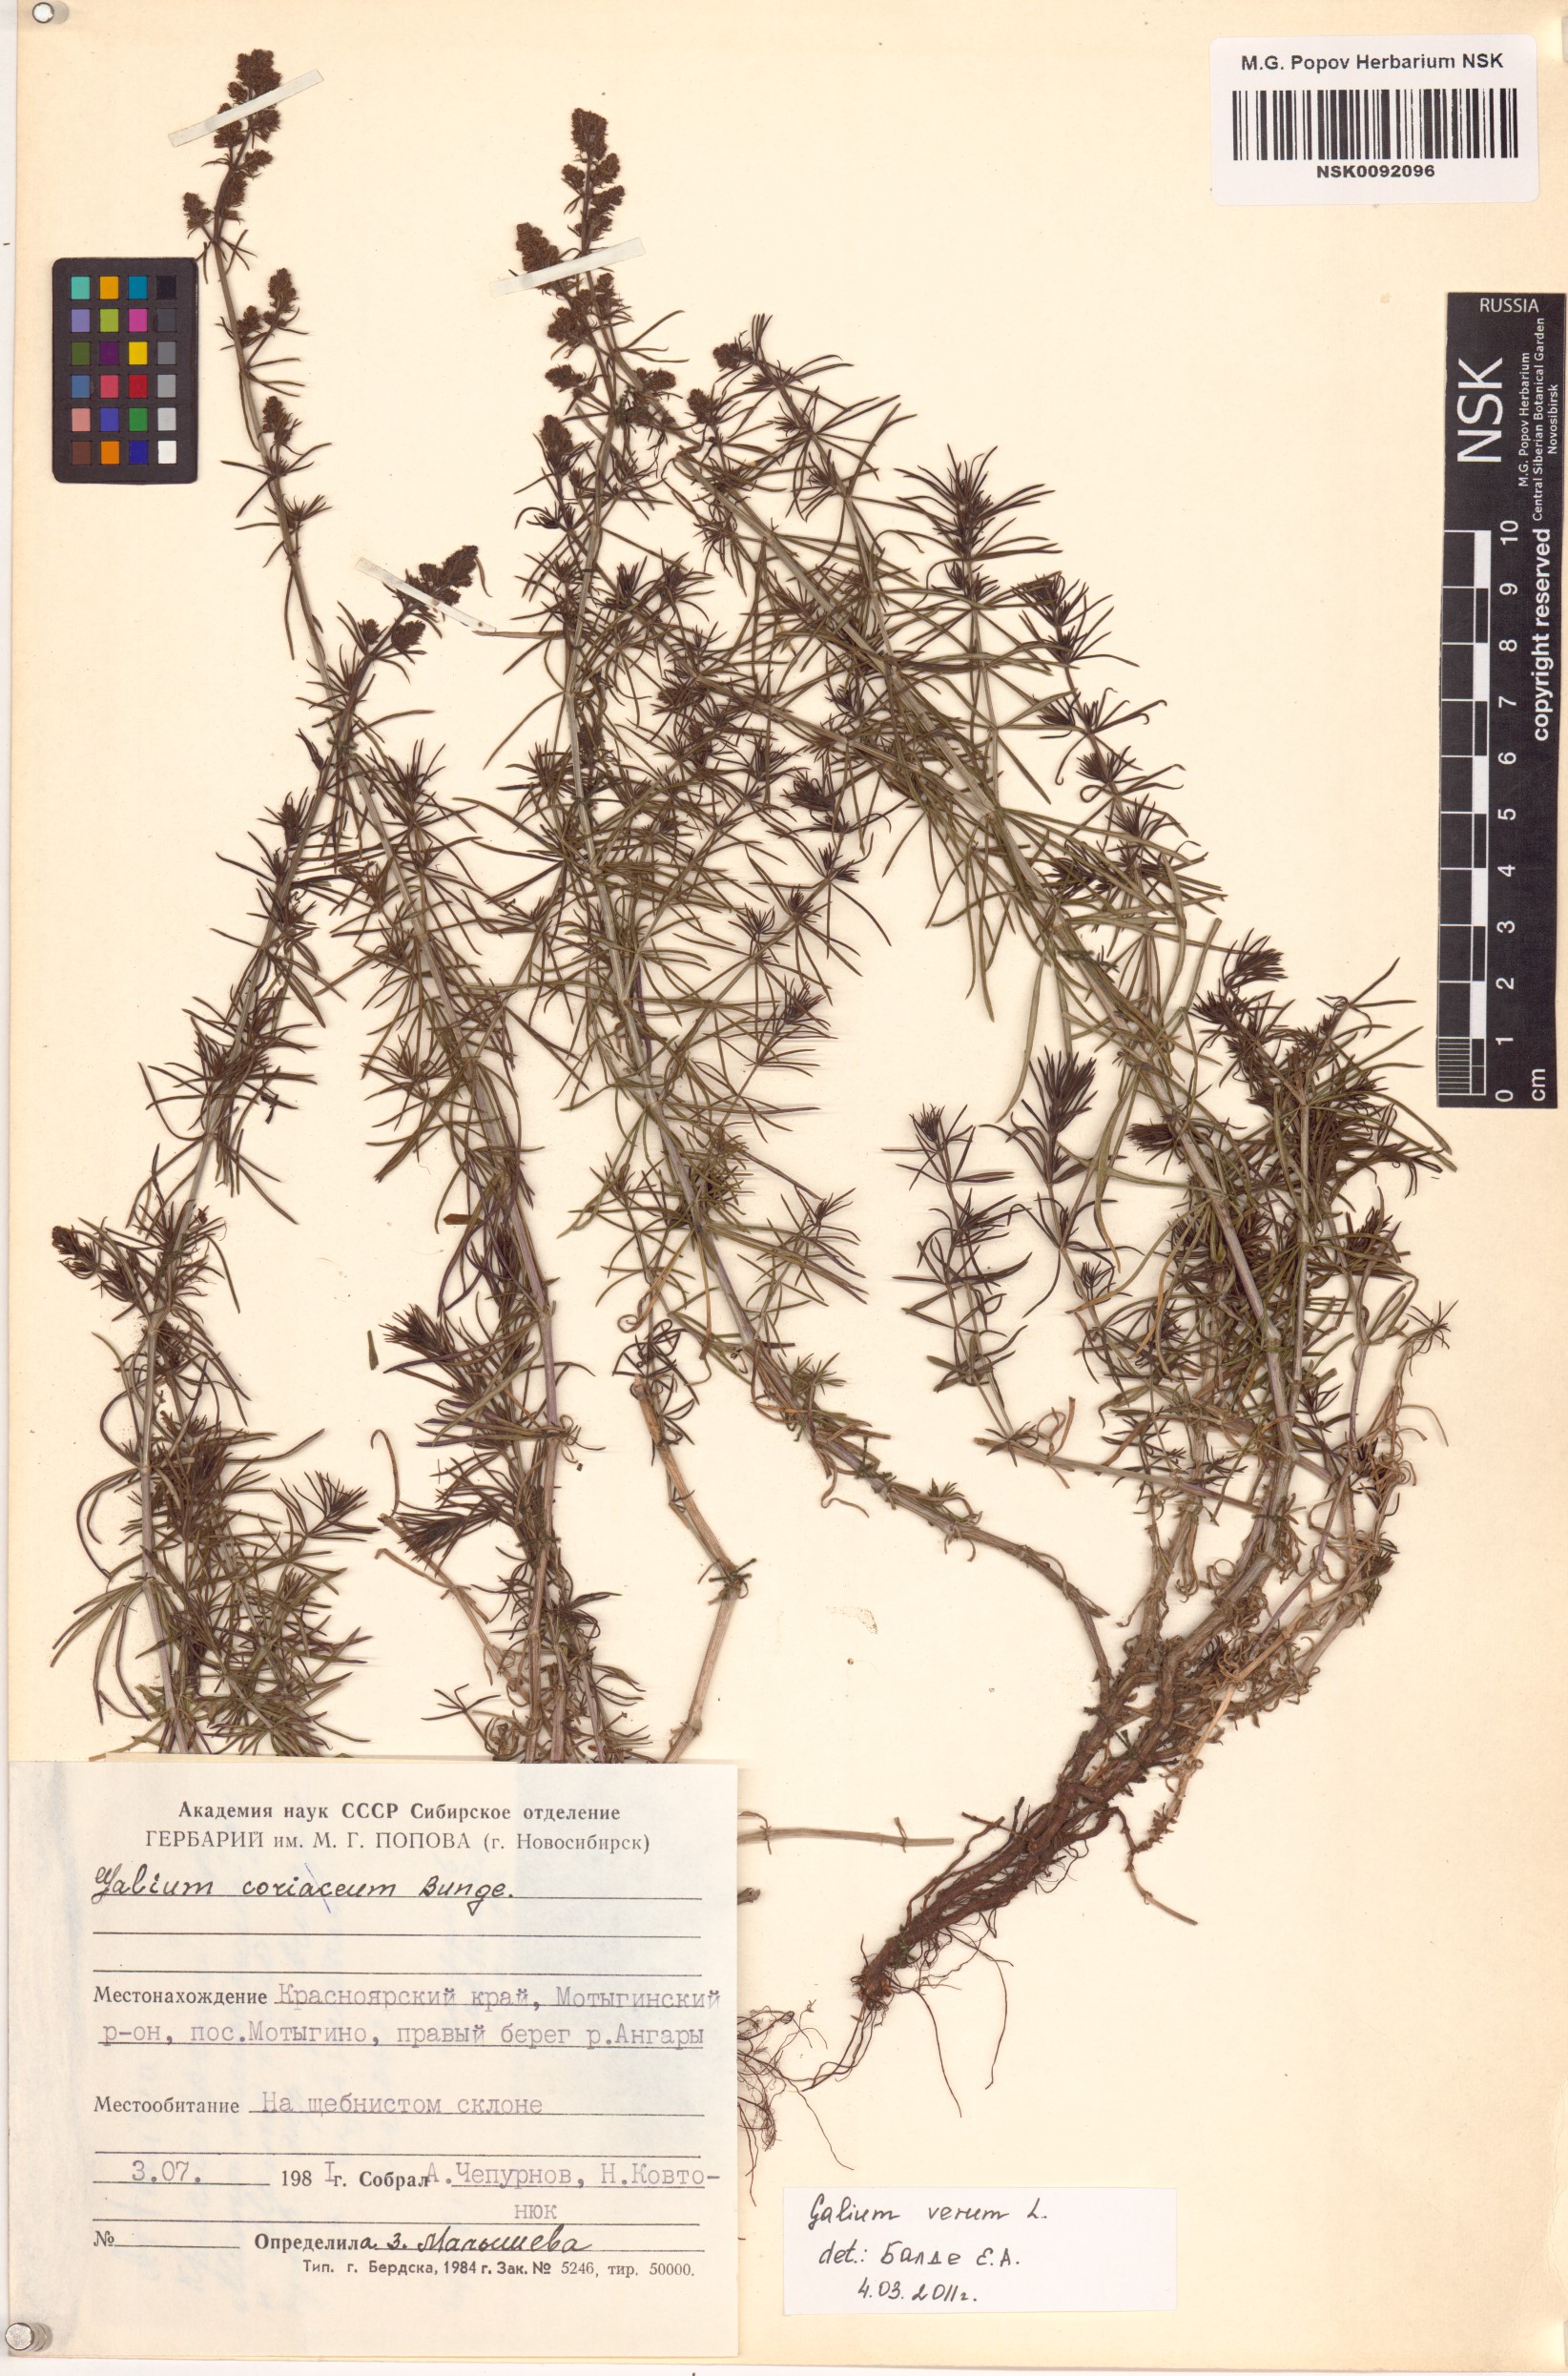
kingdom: Plantae
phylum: Tracheophyta
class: Magnoliopsida
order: Gentianales
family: Rubiaceae
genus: Galium
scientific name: Galium verum
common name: Lady's bedstraw
